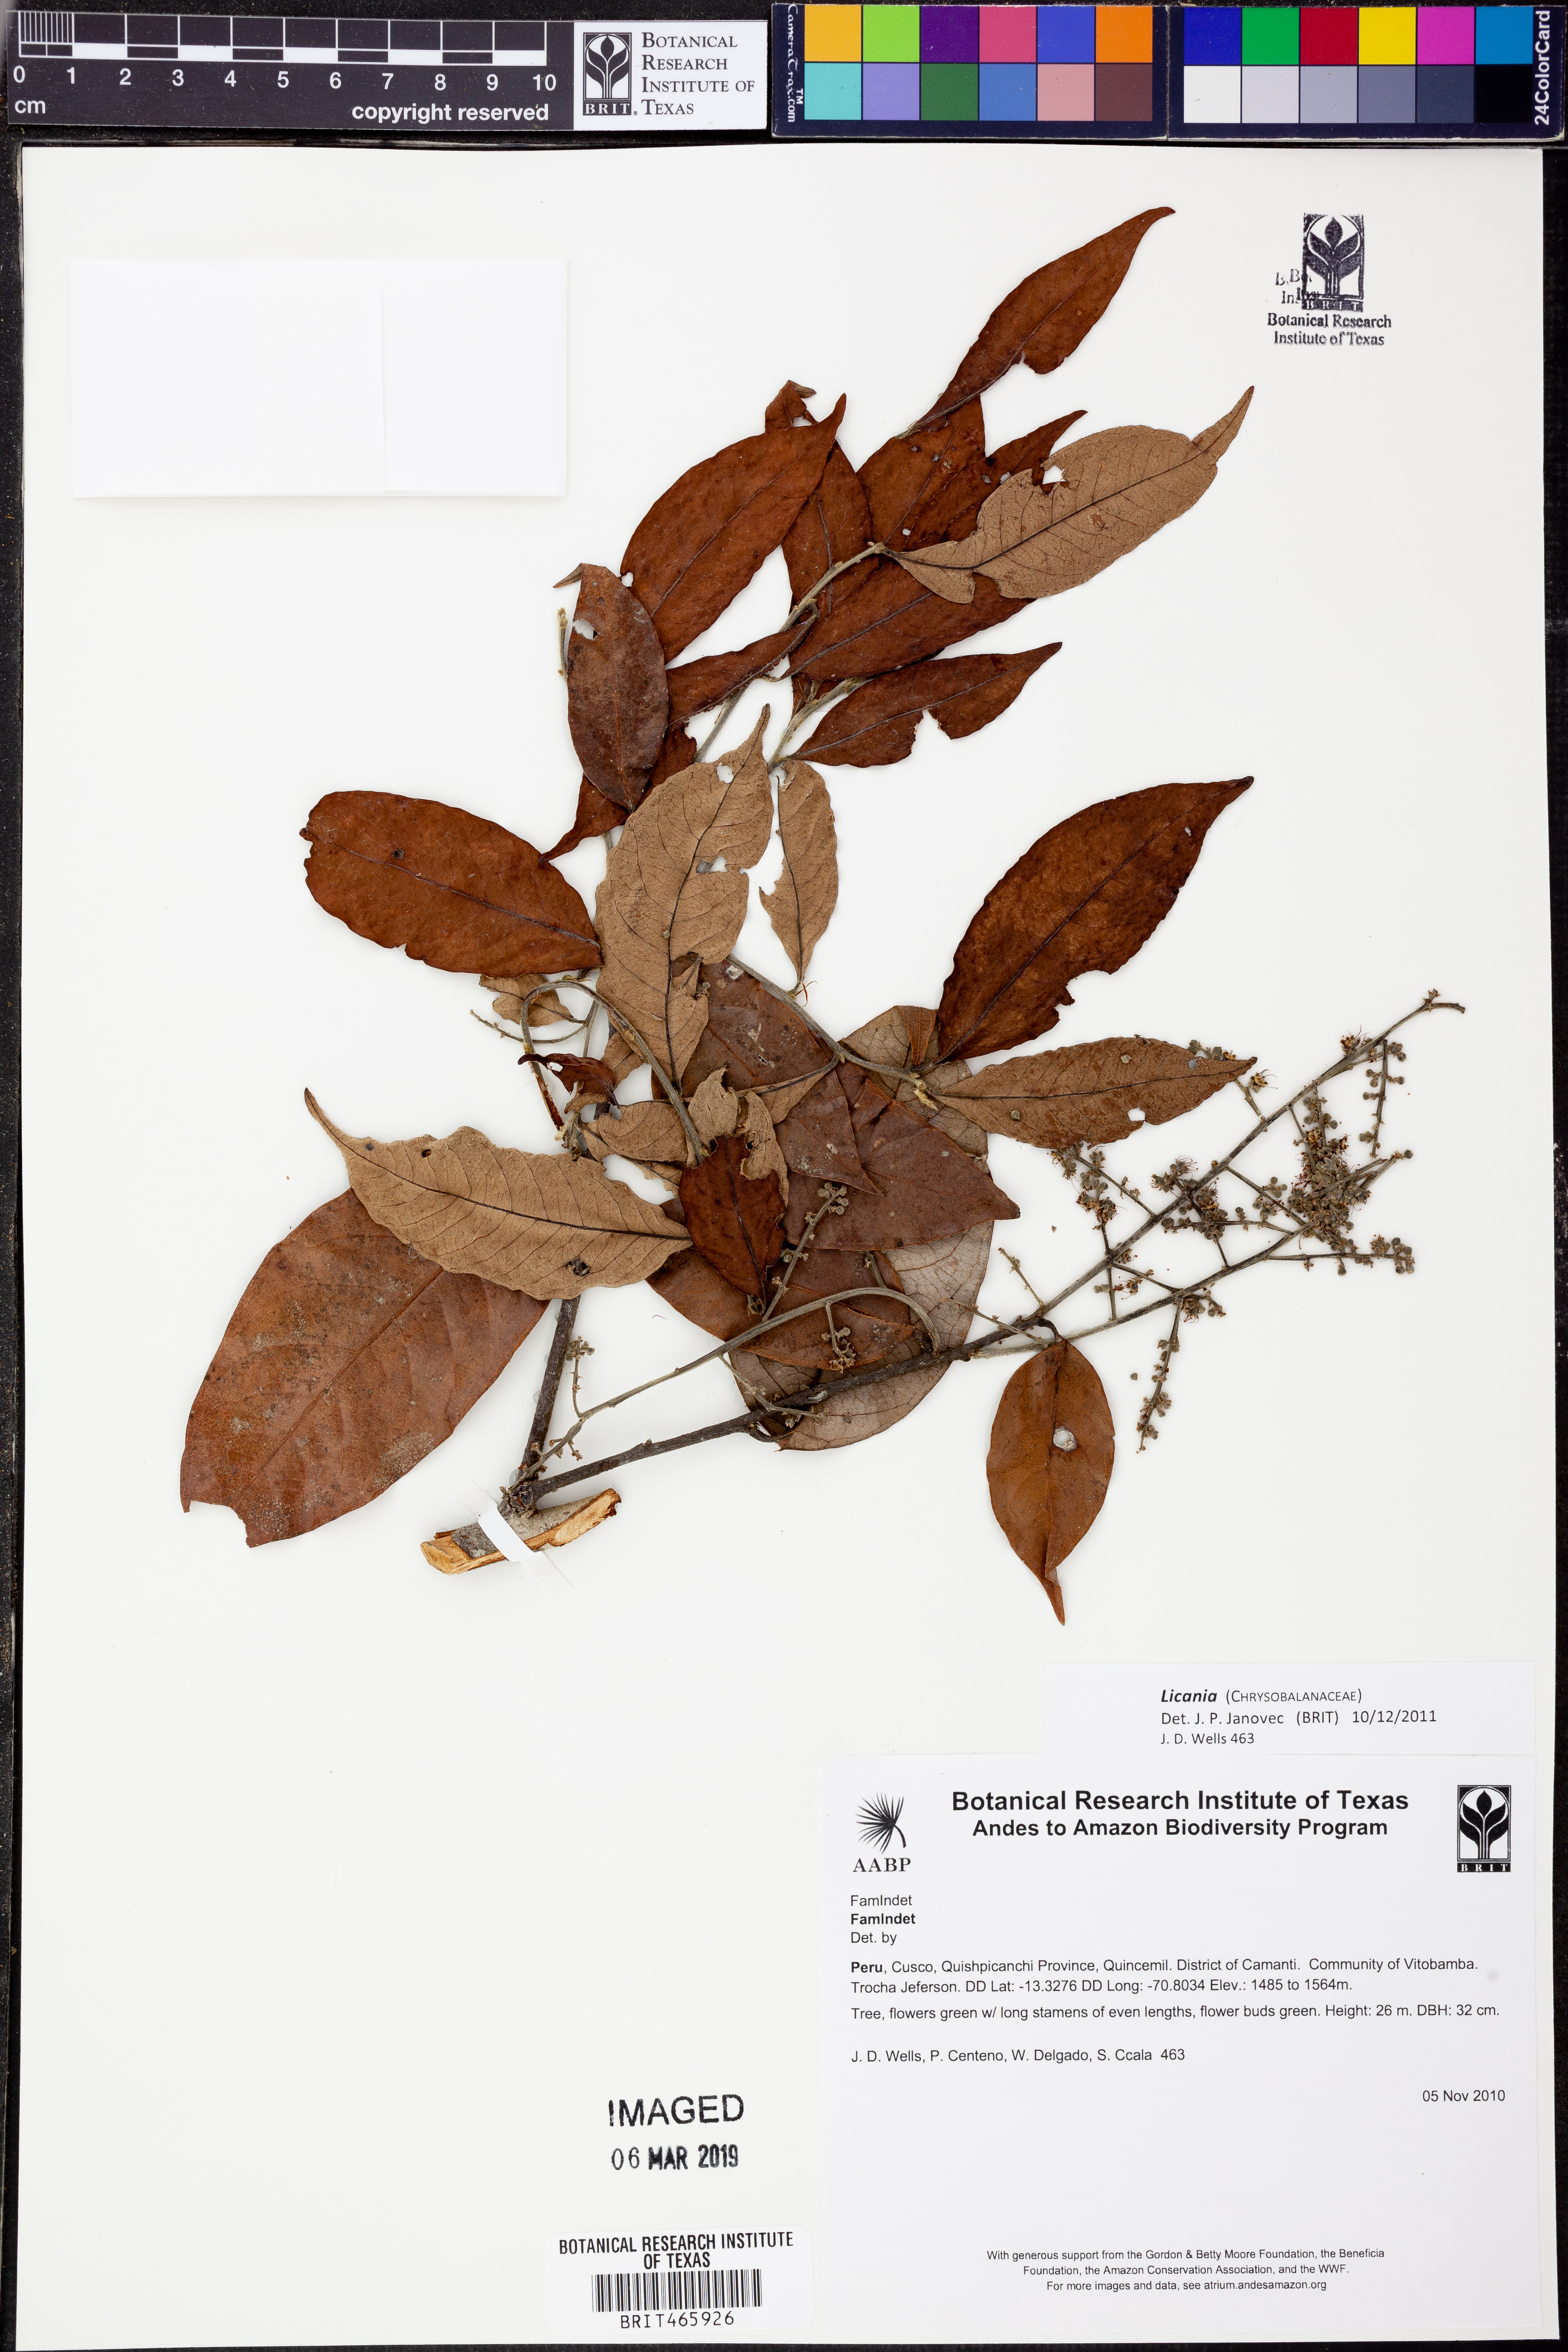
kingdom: Plantae
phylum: Tracheophyta
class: Magnoliopsida
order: Malpighiales
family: Chrysobalanaceae
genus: Licania
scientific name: Licania
